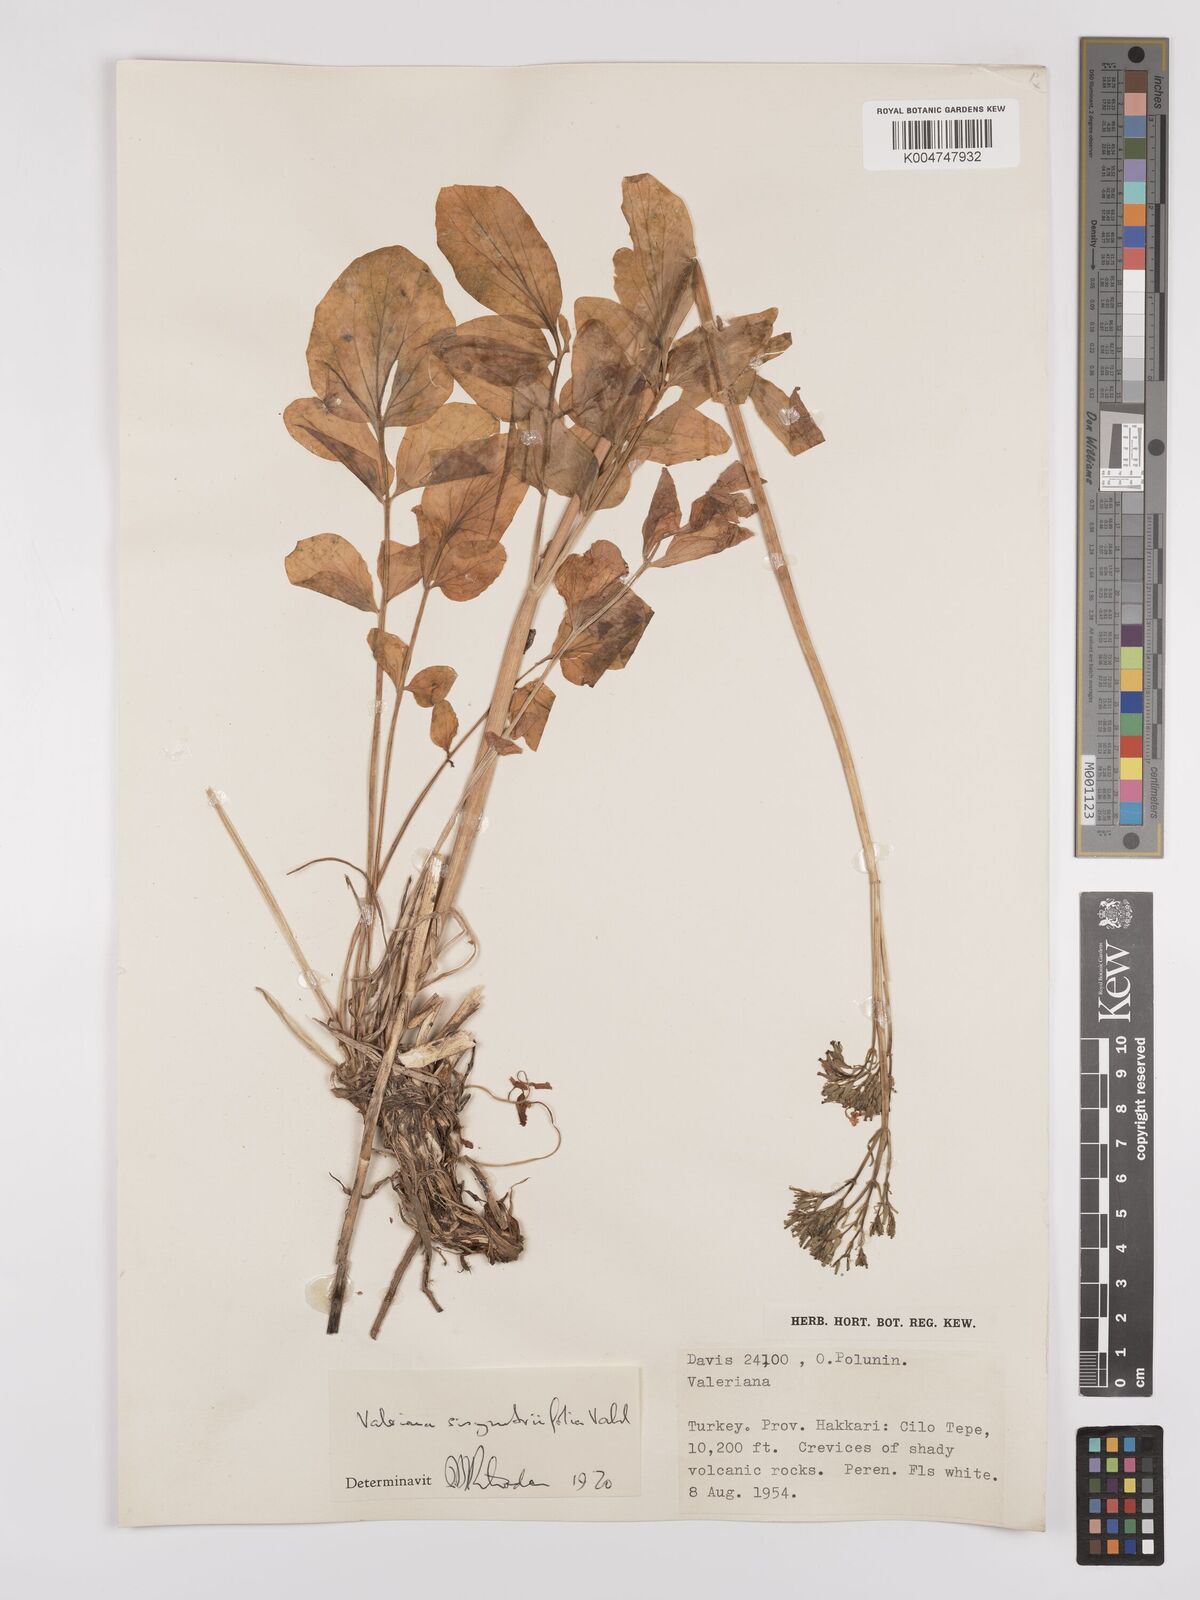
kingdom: Plantae
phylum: Tracheophyta
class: Magnoliopsida
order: Dipsacales
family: Caprifoliaceae
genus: Valeriana
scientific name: Valeriana
